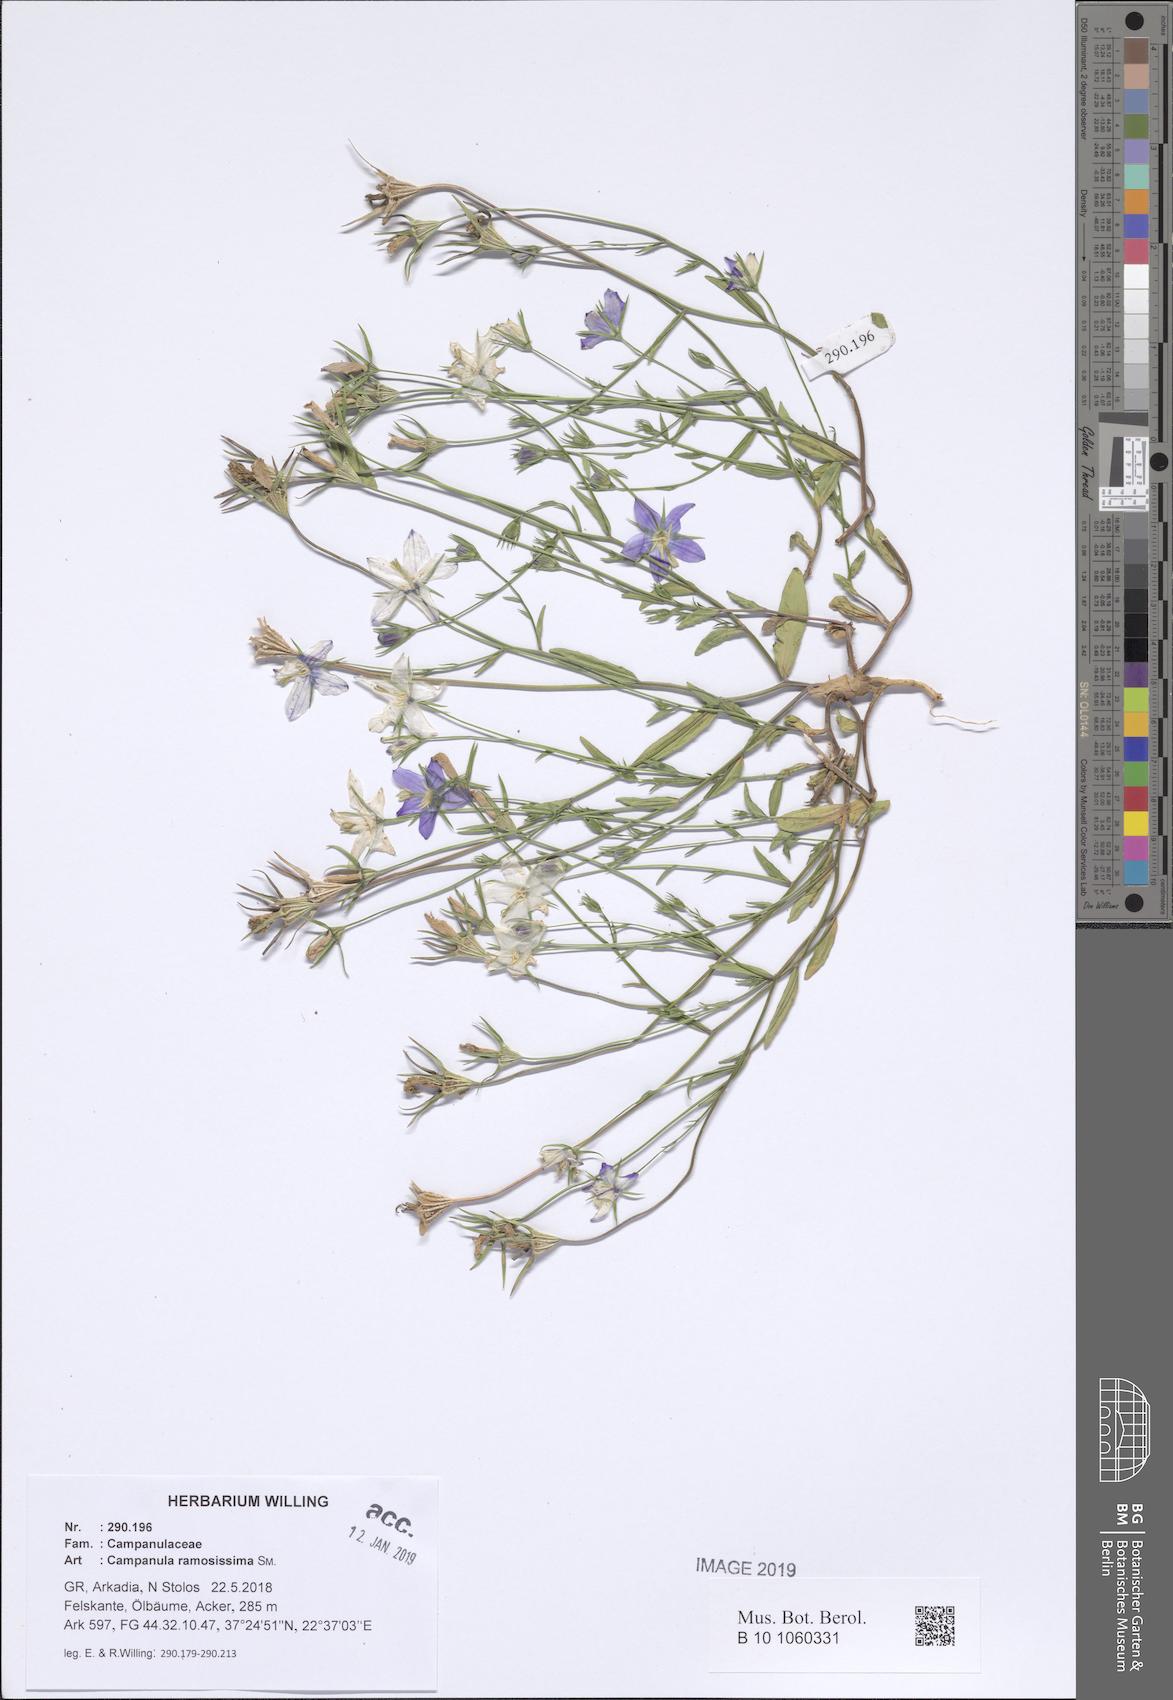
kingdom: Plantae
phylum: Tracheophyta
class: Magnoliopsida
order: Asterales
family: Campanulaceae
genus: Campanula
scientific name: Campanula ramosissima
